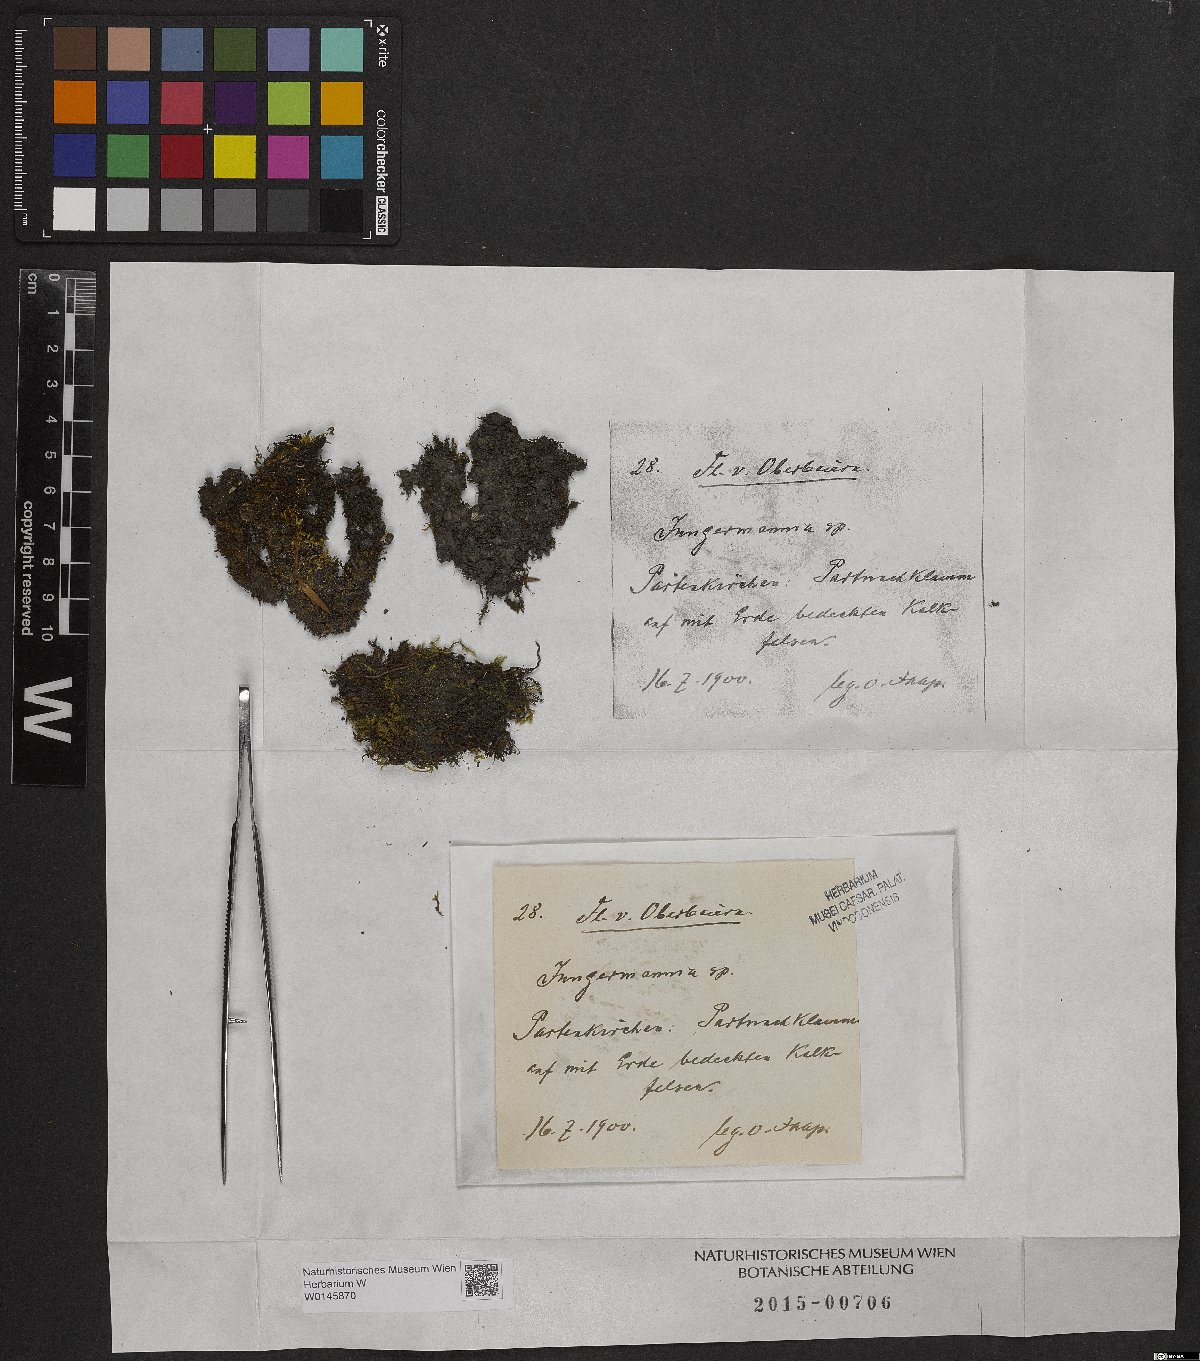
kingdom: Plantae
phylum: Marchantiophyta
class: Jungermanniopsida
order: Jungermanniales
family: Jungermanniaceae
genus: Jungermannia
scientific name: Jungermannia
